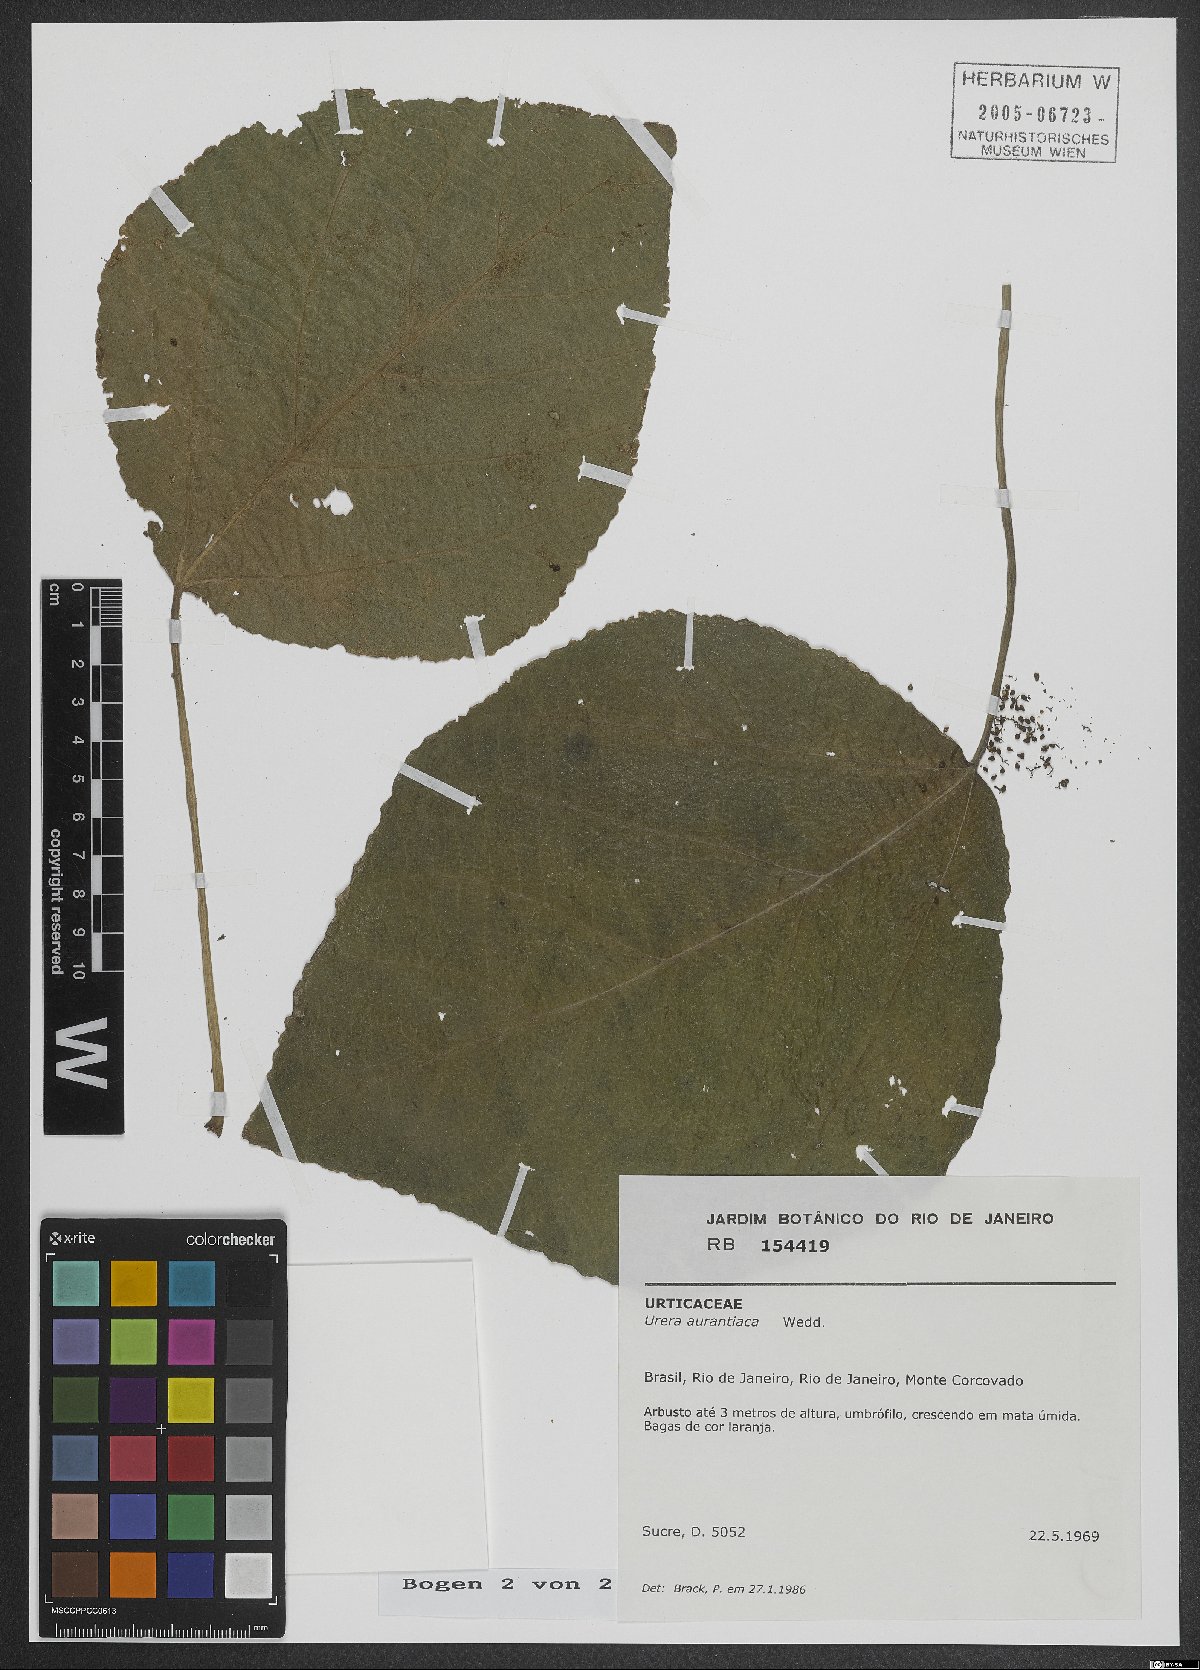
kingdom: Plantae
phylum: Tracheophyta
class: Magnoliopsida
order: Rosales
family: Urticaceae
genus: Urera
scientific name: Urera aurantiaca
